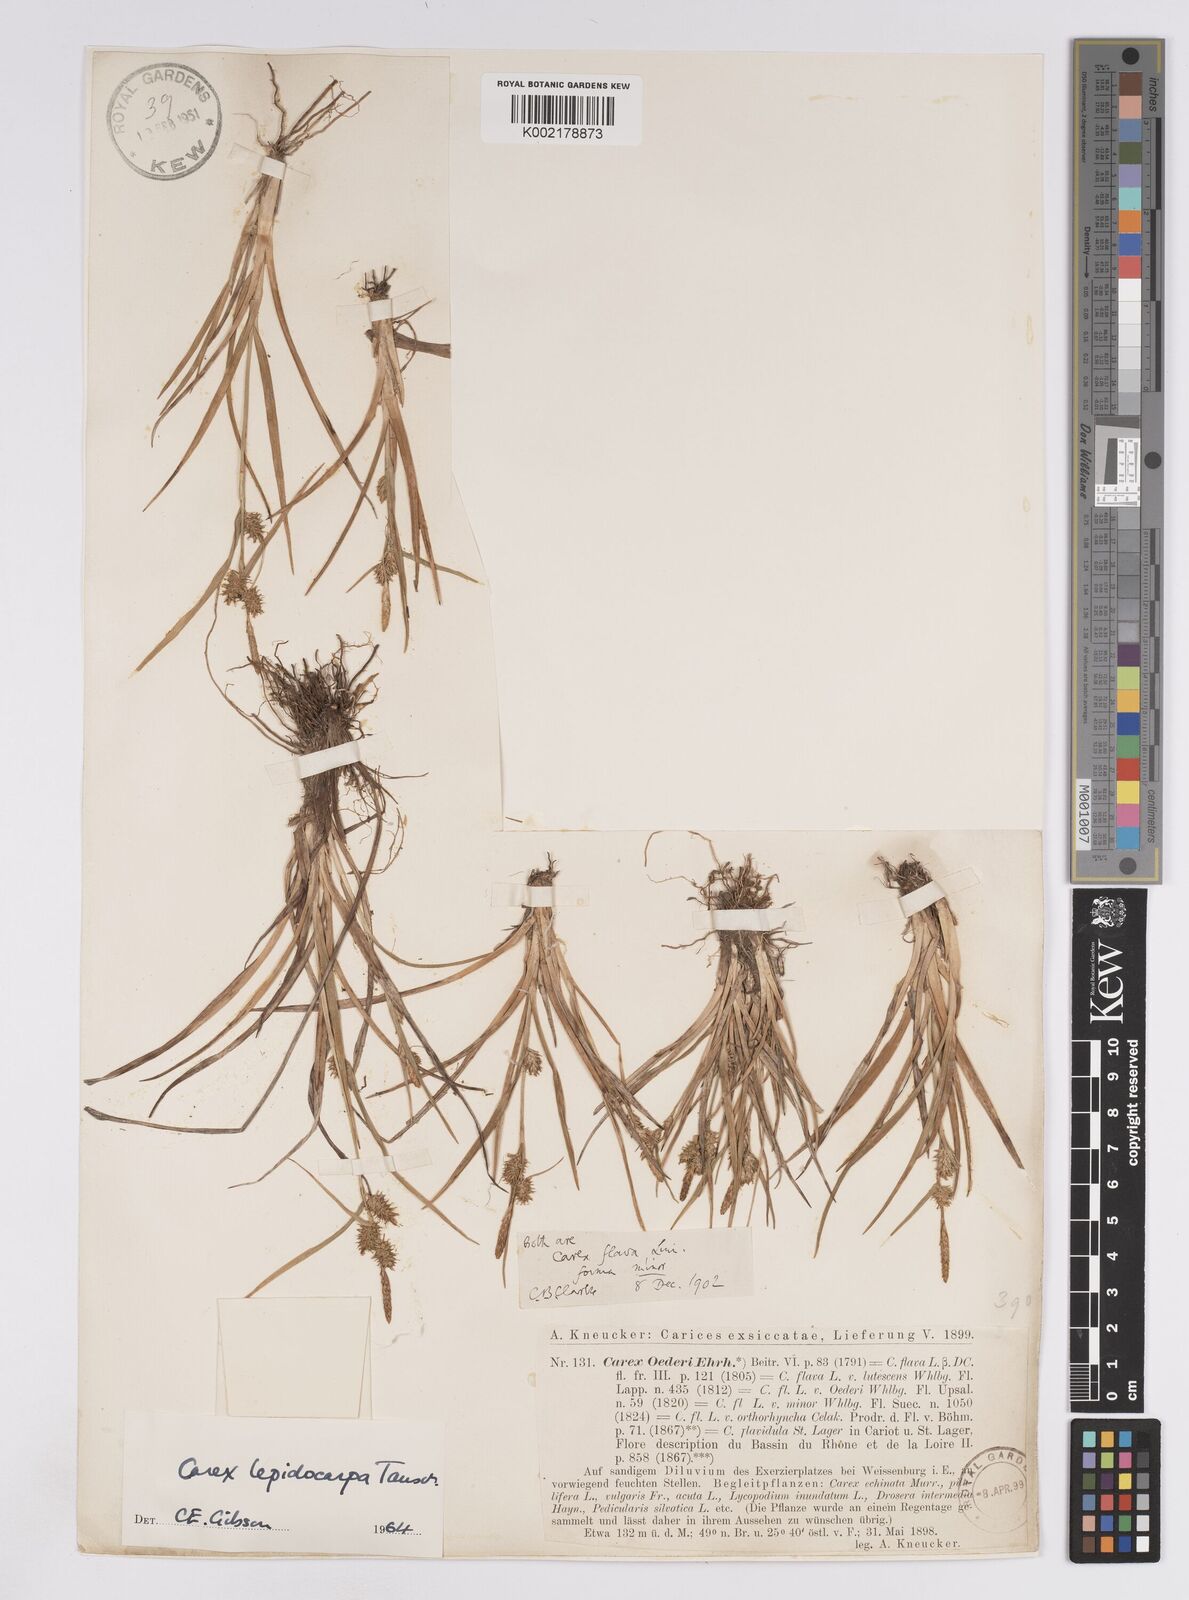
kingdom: Plantae
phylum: Tracheophyta
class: Liliopsida
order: Poales
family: Cyperaceae
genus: Carex
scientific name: Carex lepidocarpa
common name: Long-stalked yellow-sedge
